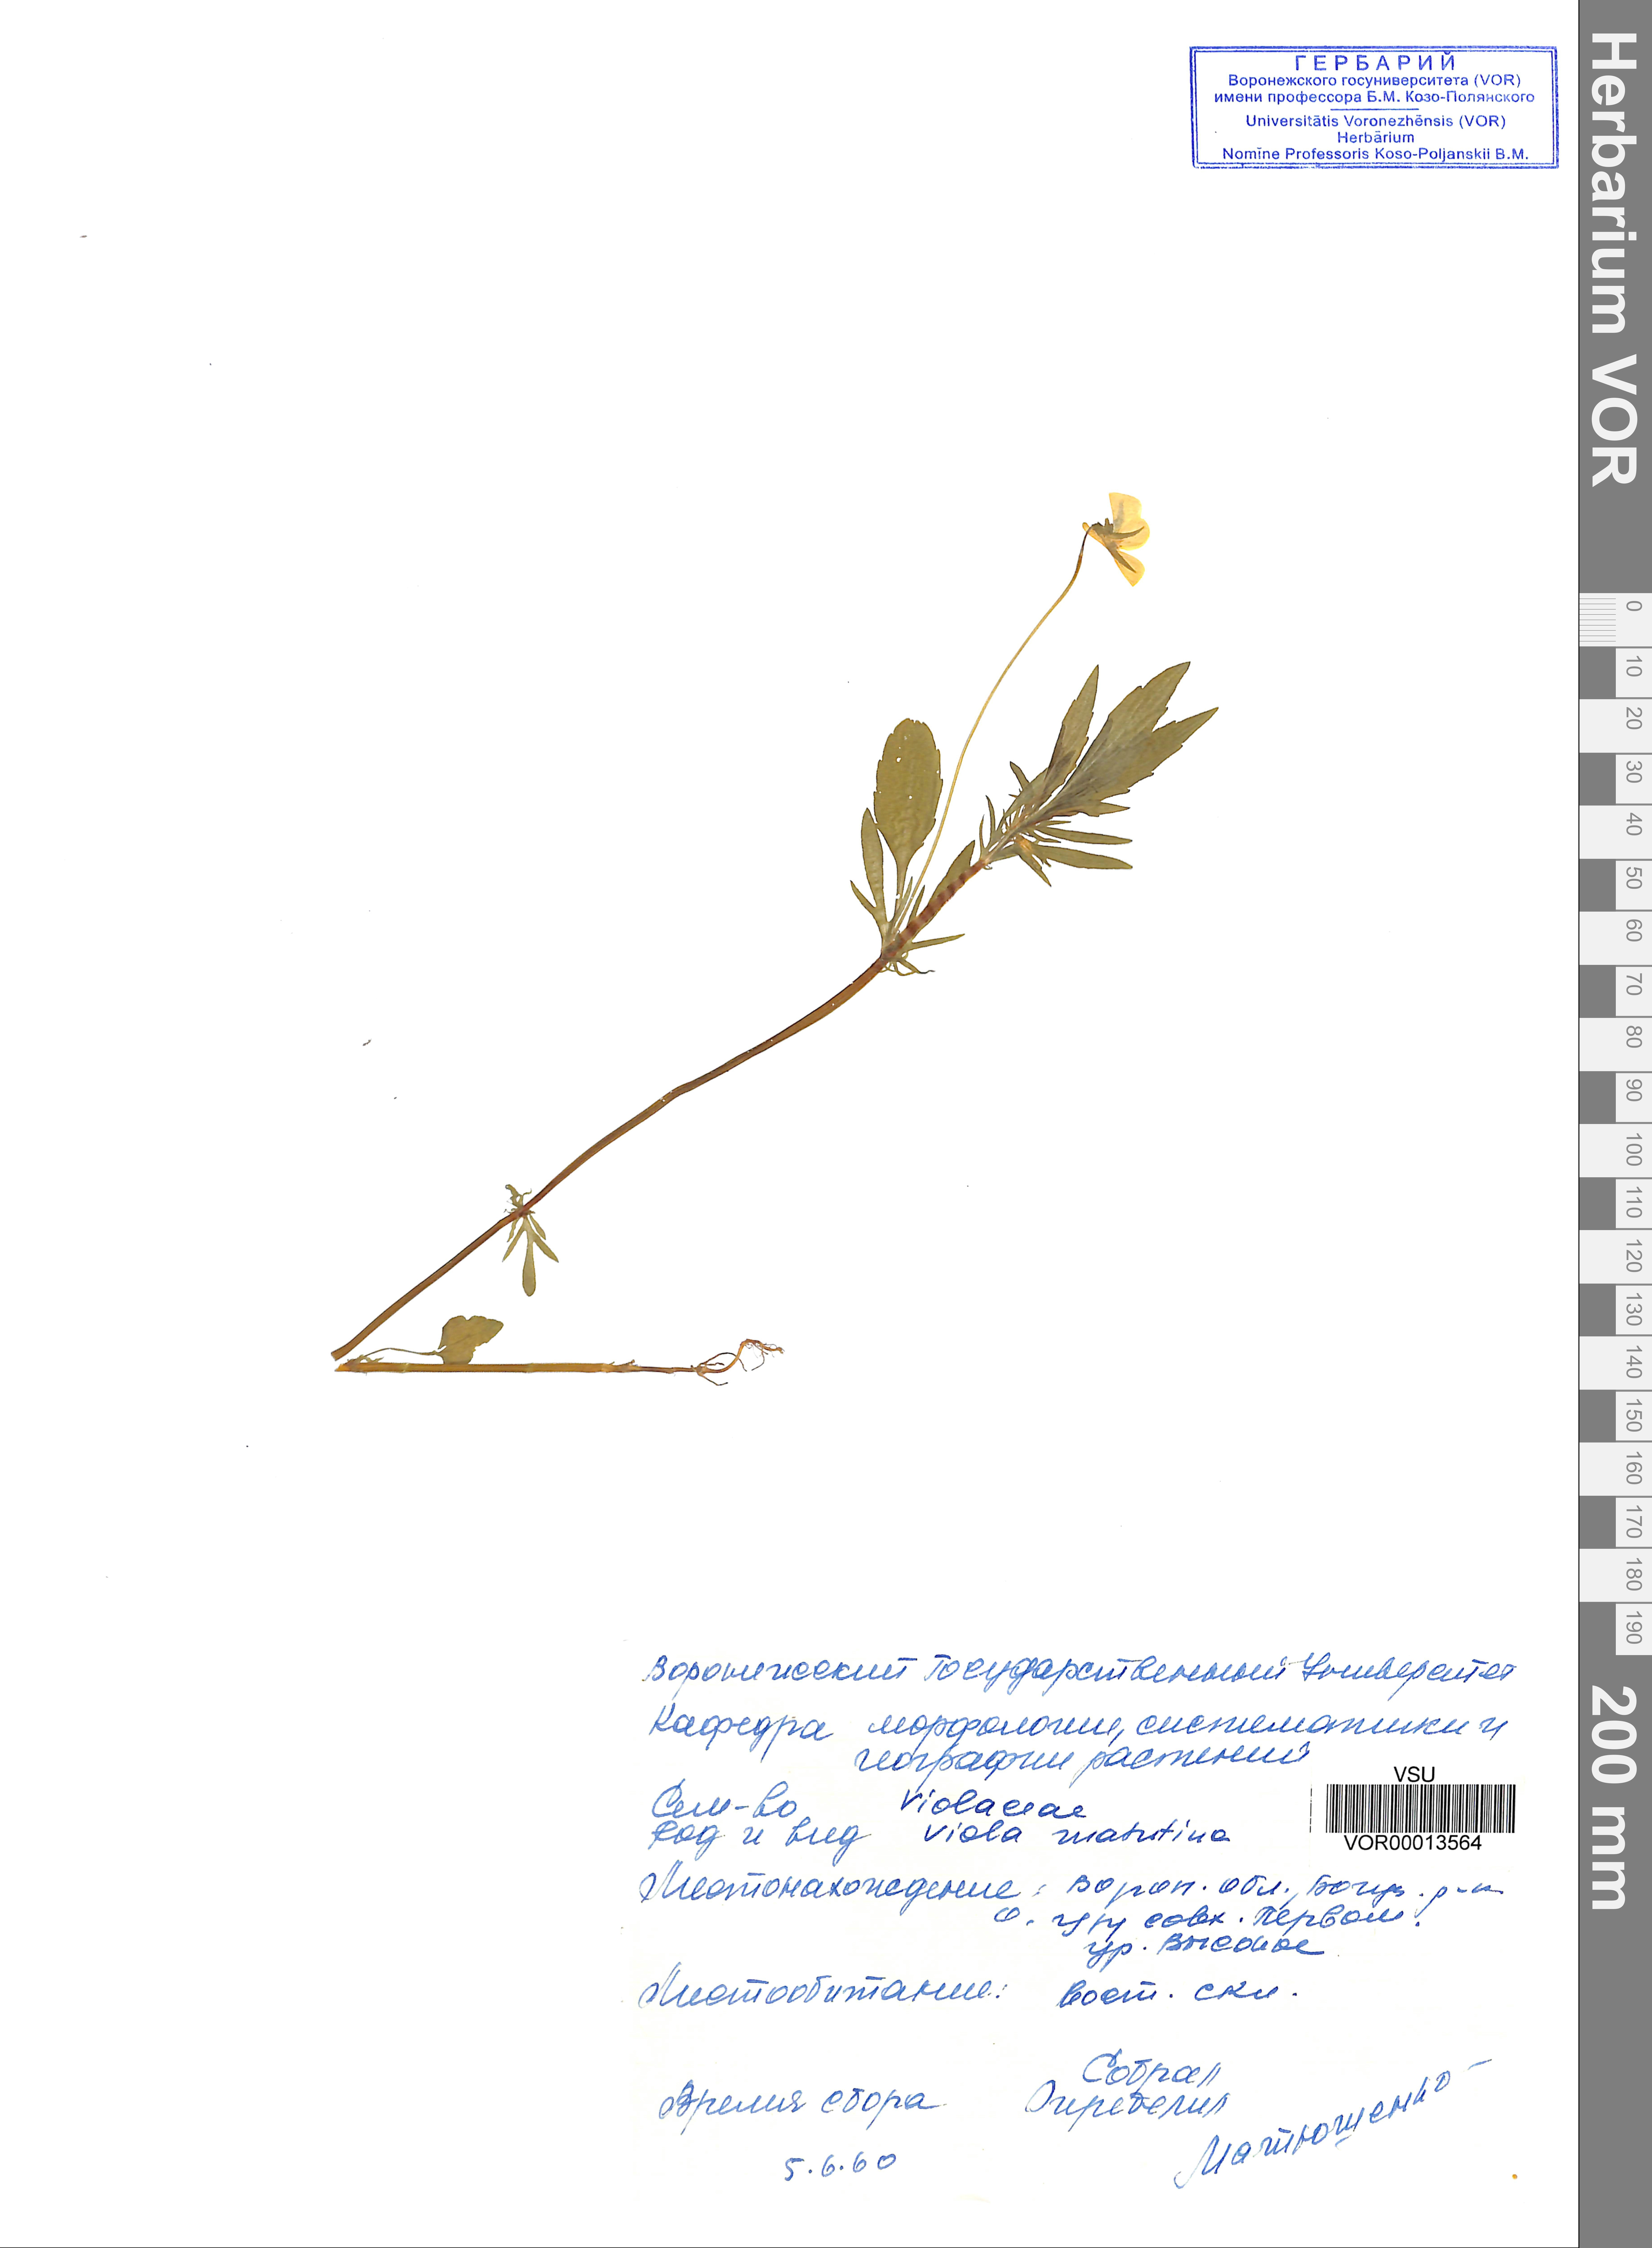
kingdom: Plantae
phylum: Tracheophyta
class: Magnoliopsida
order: Malpighiales
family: Violaceae
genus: Viola
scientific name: Viola tricolor
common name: Pansy
